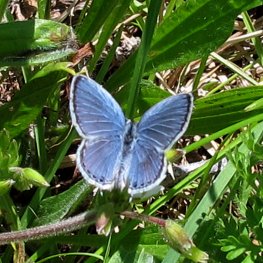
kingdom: Animalia
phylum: Arthropoda
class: Insecta
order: Lepidoptera
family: Lycaenidae
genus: Elkalyce
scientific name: Elkalyce comyntas
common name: Eastern Tailed-Blue
